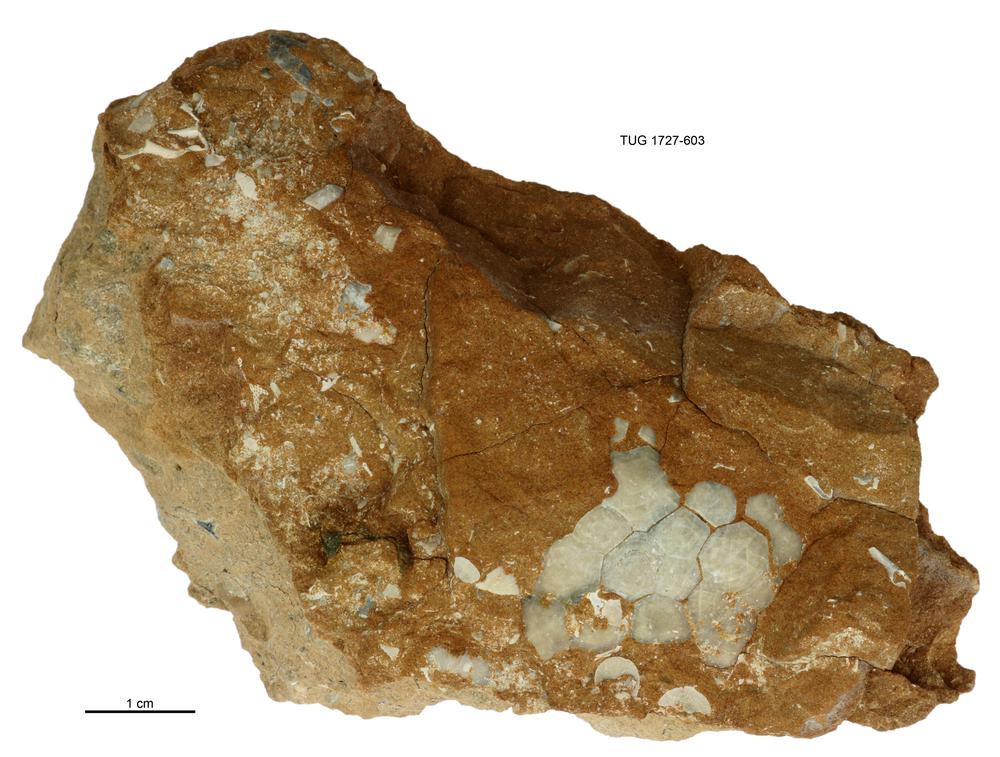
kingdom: Animalia
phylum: Echinodermata
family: Echinosphaeritidae
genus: Echinosphaerites
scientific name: Echinosphaerites
